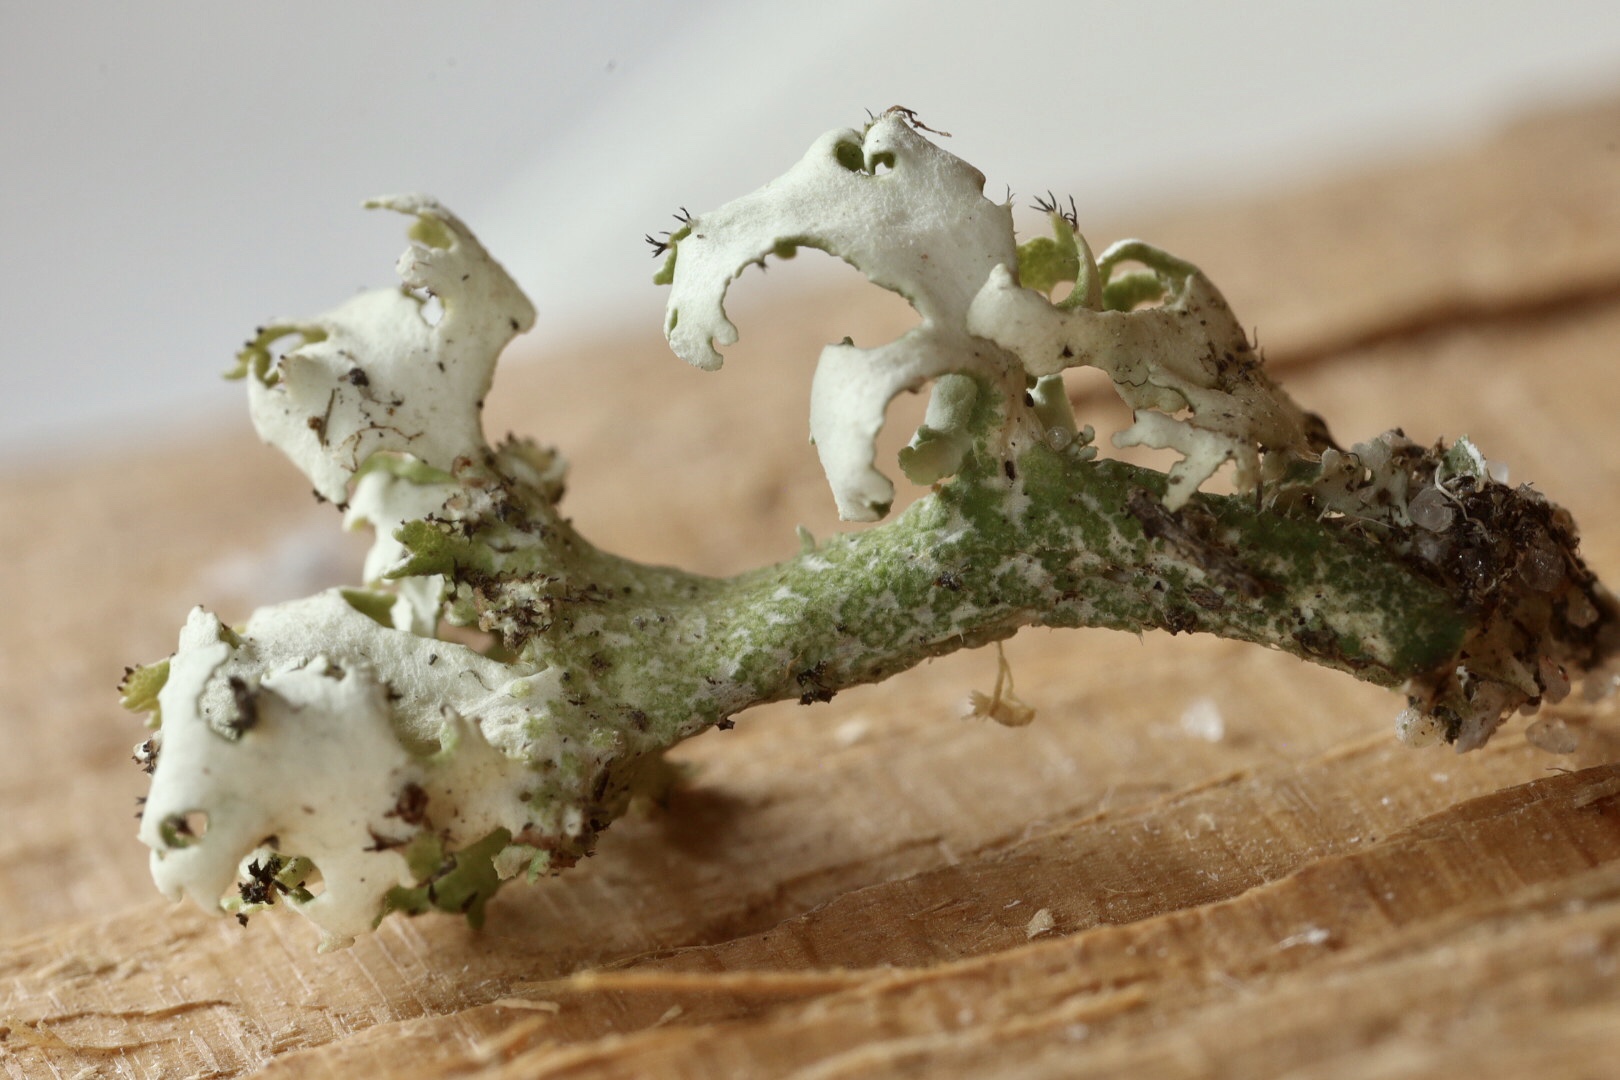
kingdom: Fungi
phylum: Ascomycota
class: Lecanoromycetes
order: Lecanorales
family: Cladoniaceae
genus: Cladonia
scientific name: Cladonia foliacea
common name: fliget bægerlav
